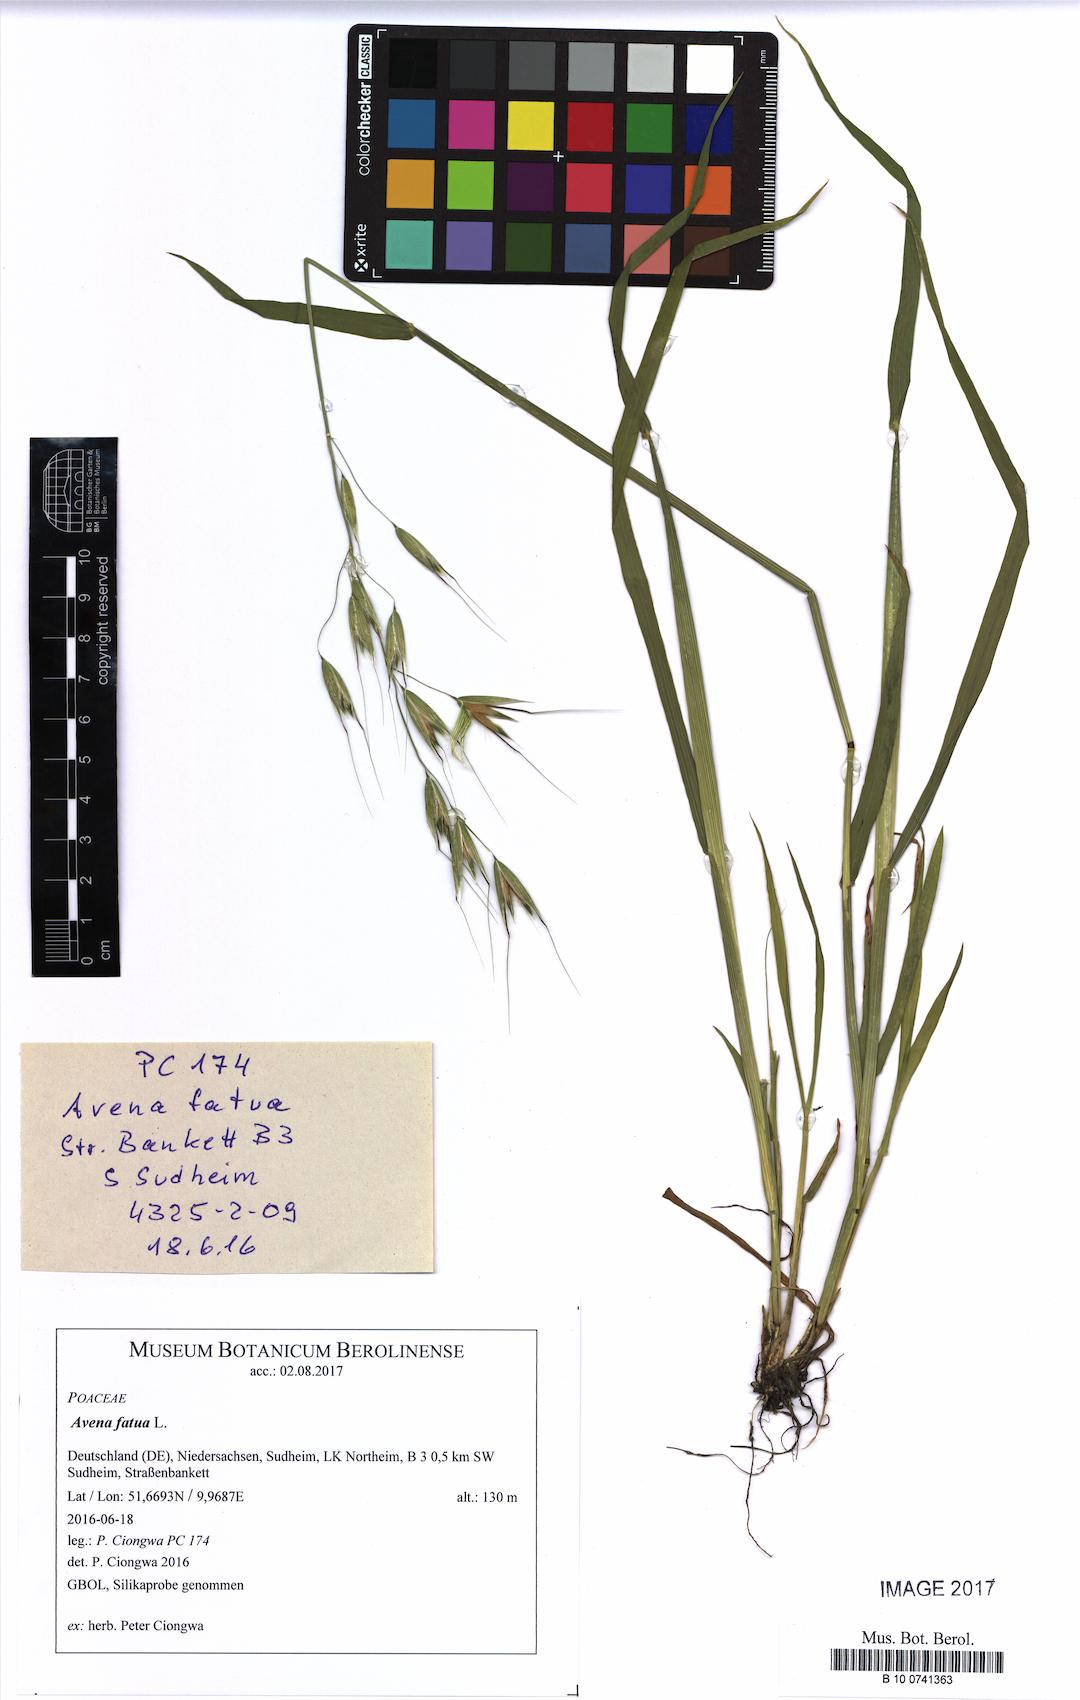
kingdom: Plantae
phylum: Tracheophyta
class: Liliopsida
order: Poales
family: Poaceae
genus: Avena
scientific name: Avena fatua
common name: Wild oat
